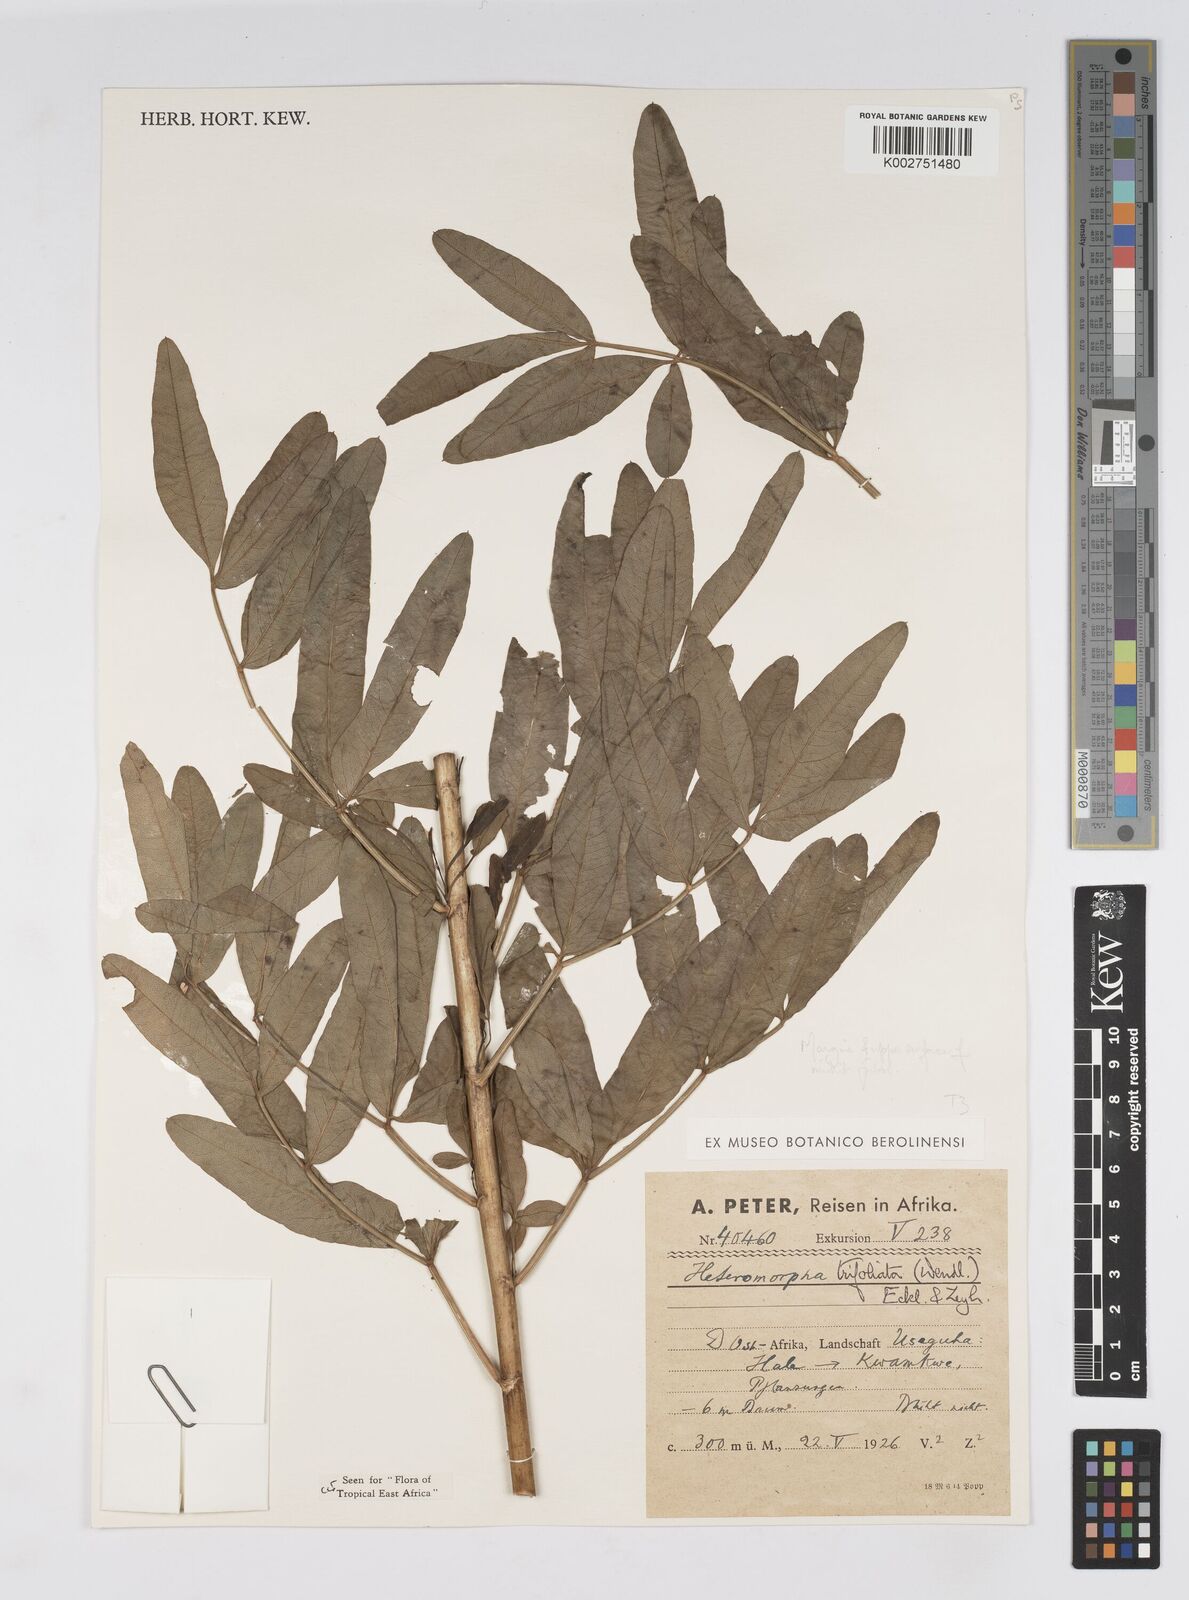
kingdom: Plantae
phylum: Tracheophyta
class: Magnoliopsida
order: Apiales
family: Apiaceae
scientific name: Apiaceae
